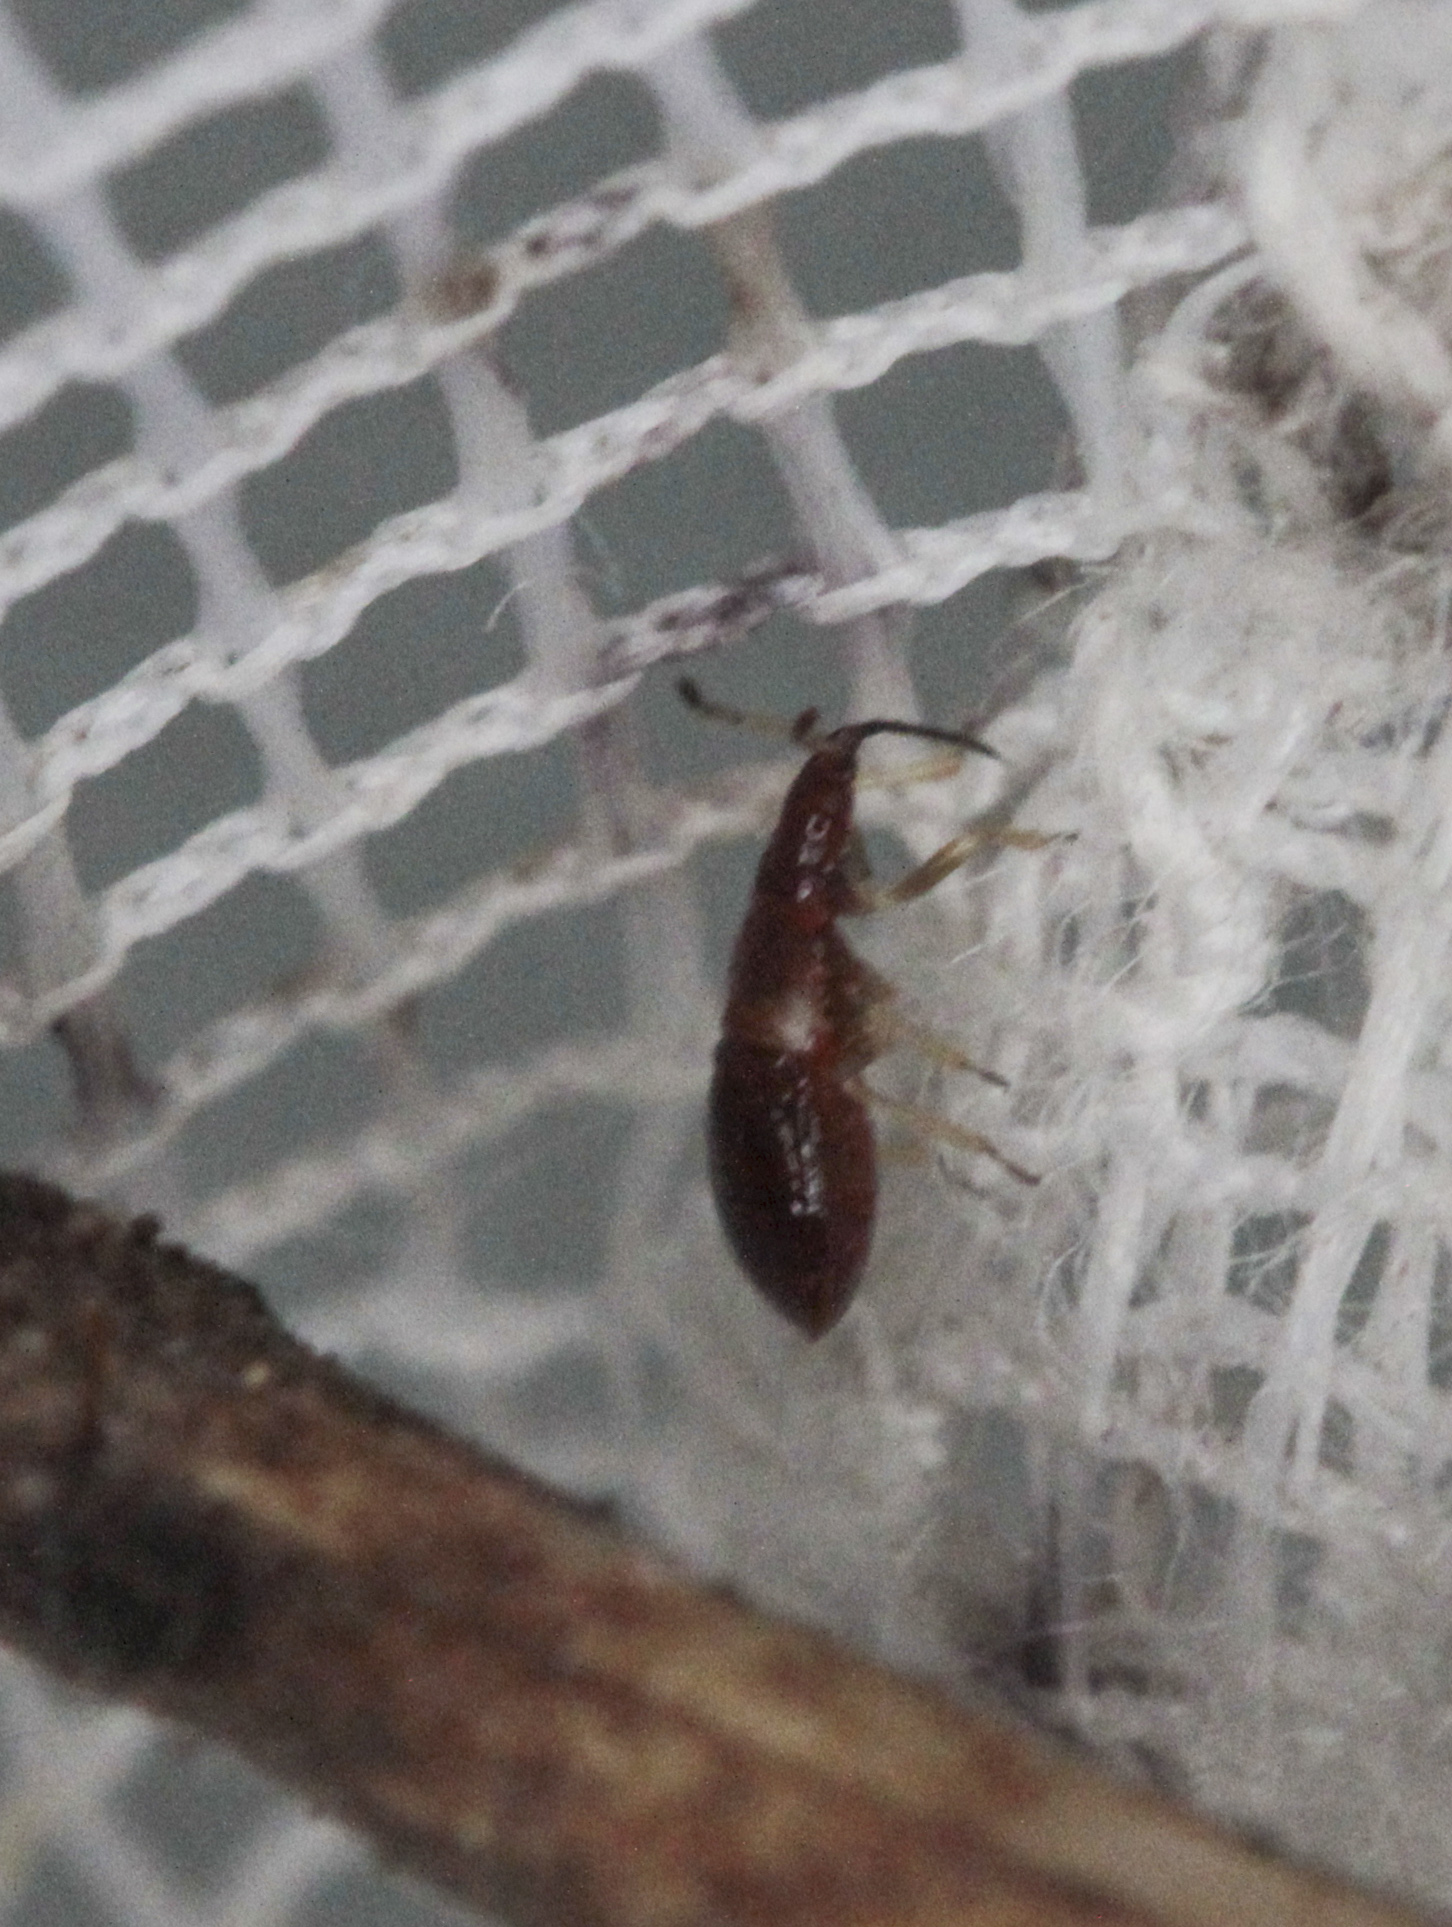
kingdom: Animalia
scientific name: Animalia
